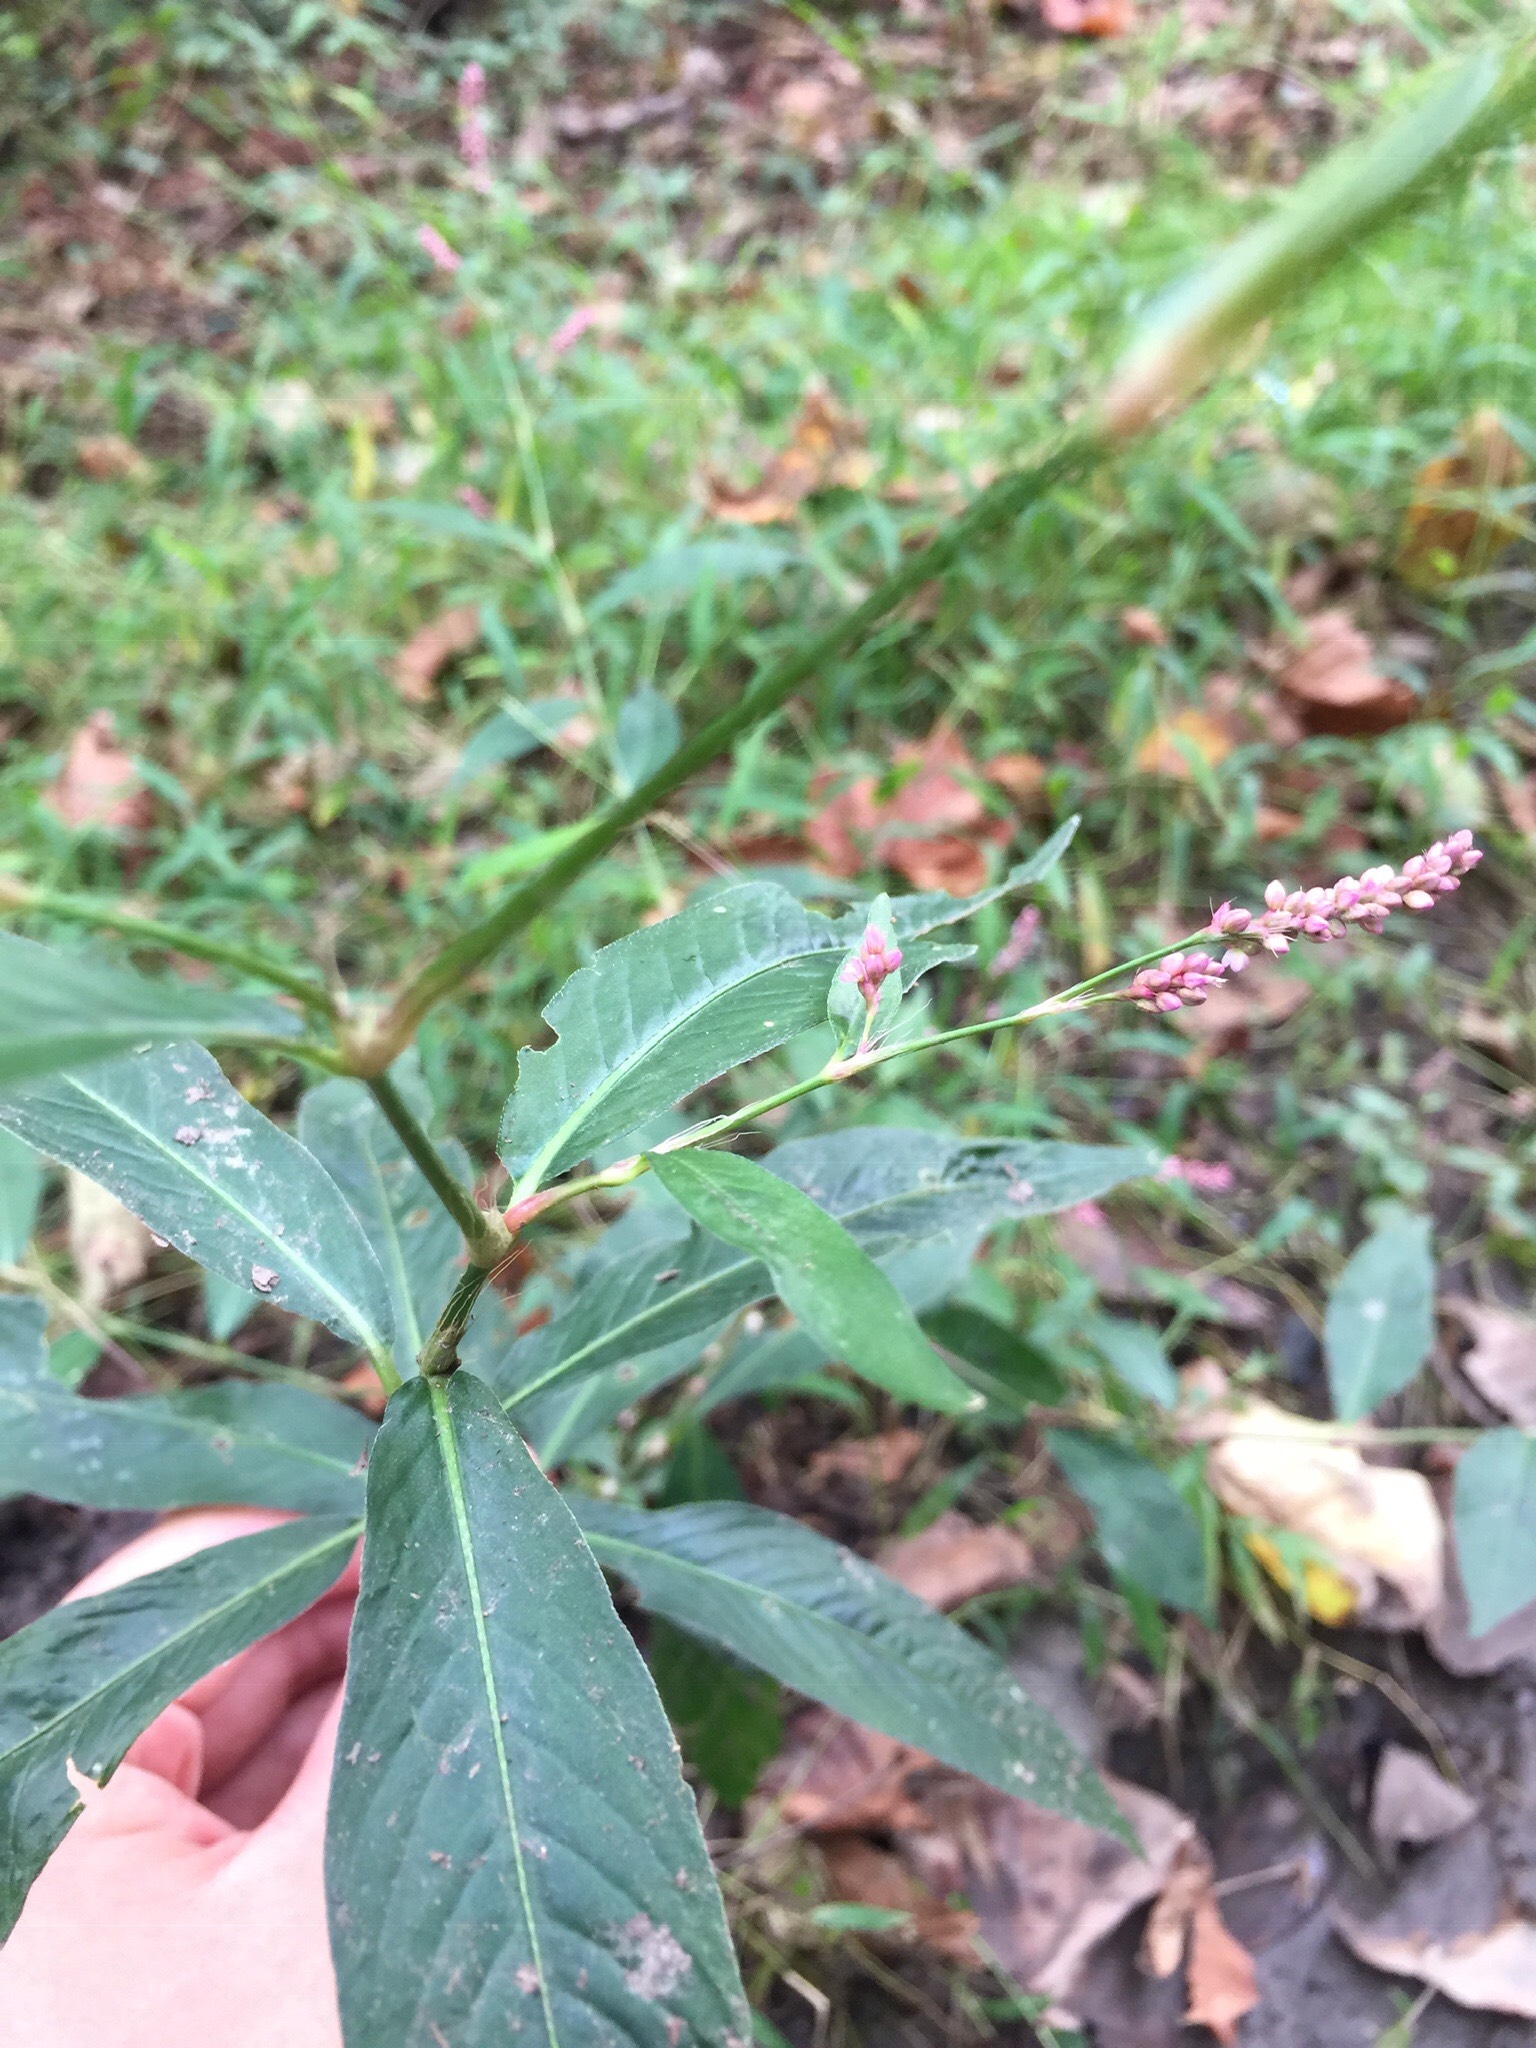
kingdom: Plantae
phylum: Tracheophyta
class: Magnoliopsida
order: Caryophyllales
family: Polygonaceae
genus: Persicaria
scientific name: Persicaria longiseta
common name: Smartweed
